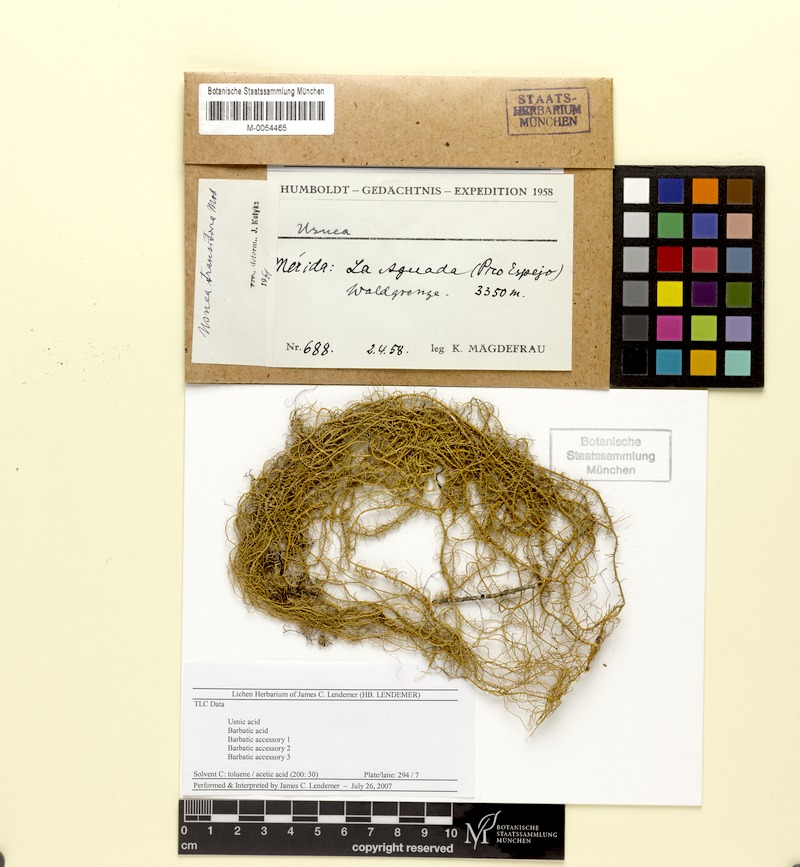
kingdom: Fungi
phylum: Ascomycota
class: Lecanoromycetes
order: Lecanorales
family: Parmeliaceae
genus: Usnea
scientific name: Usnea duriuscula
